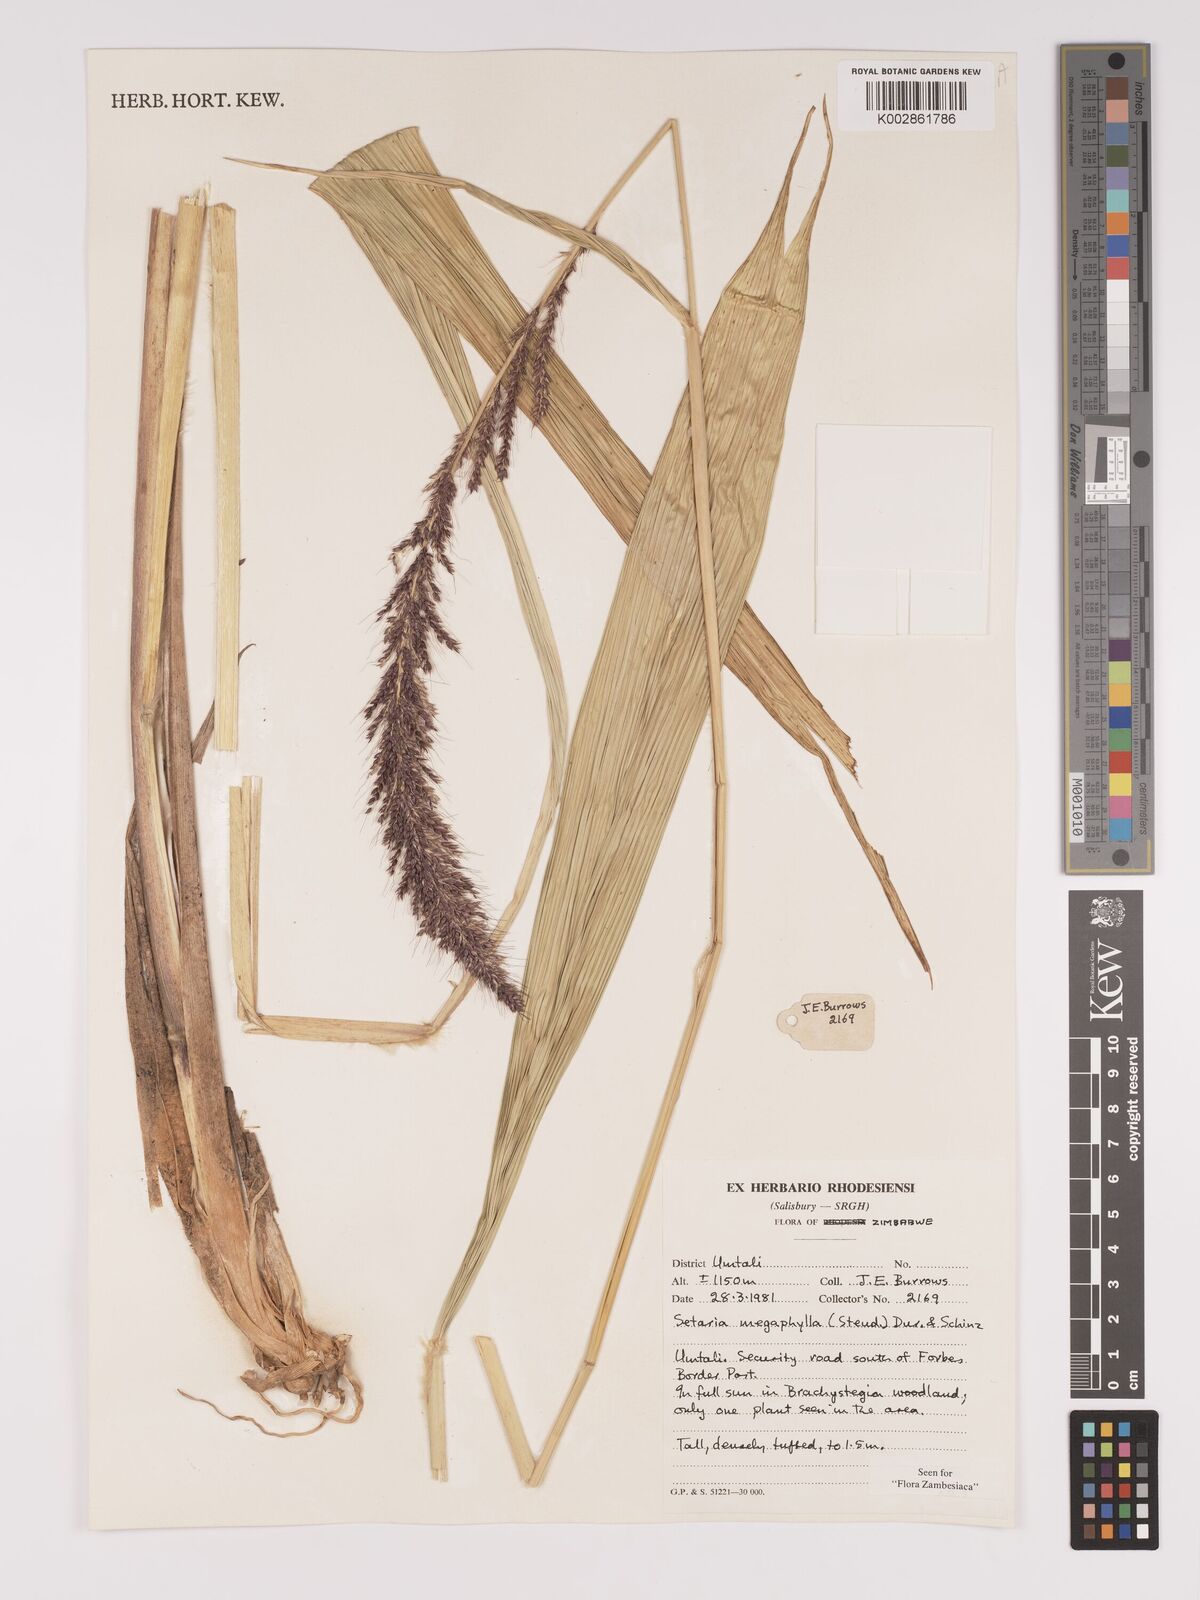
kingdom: Plantae
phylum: Tracheophyta
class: Liliopsida
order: Poales
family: Poaceae
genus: Setaria
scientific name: Setaria megaphylla
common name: Bigleaf bristlegrass
